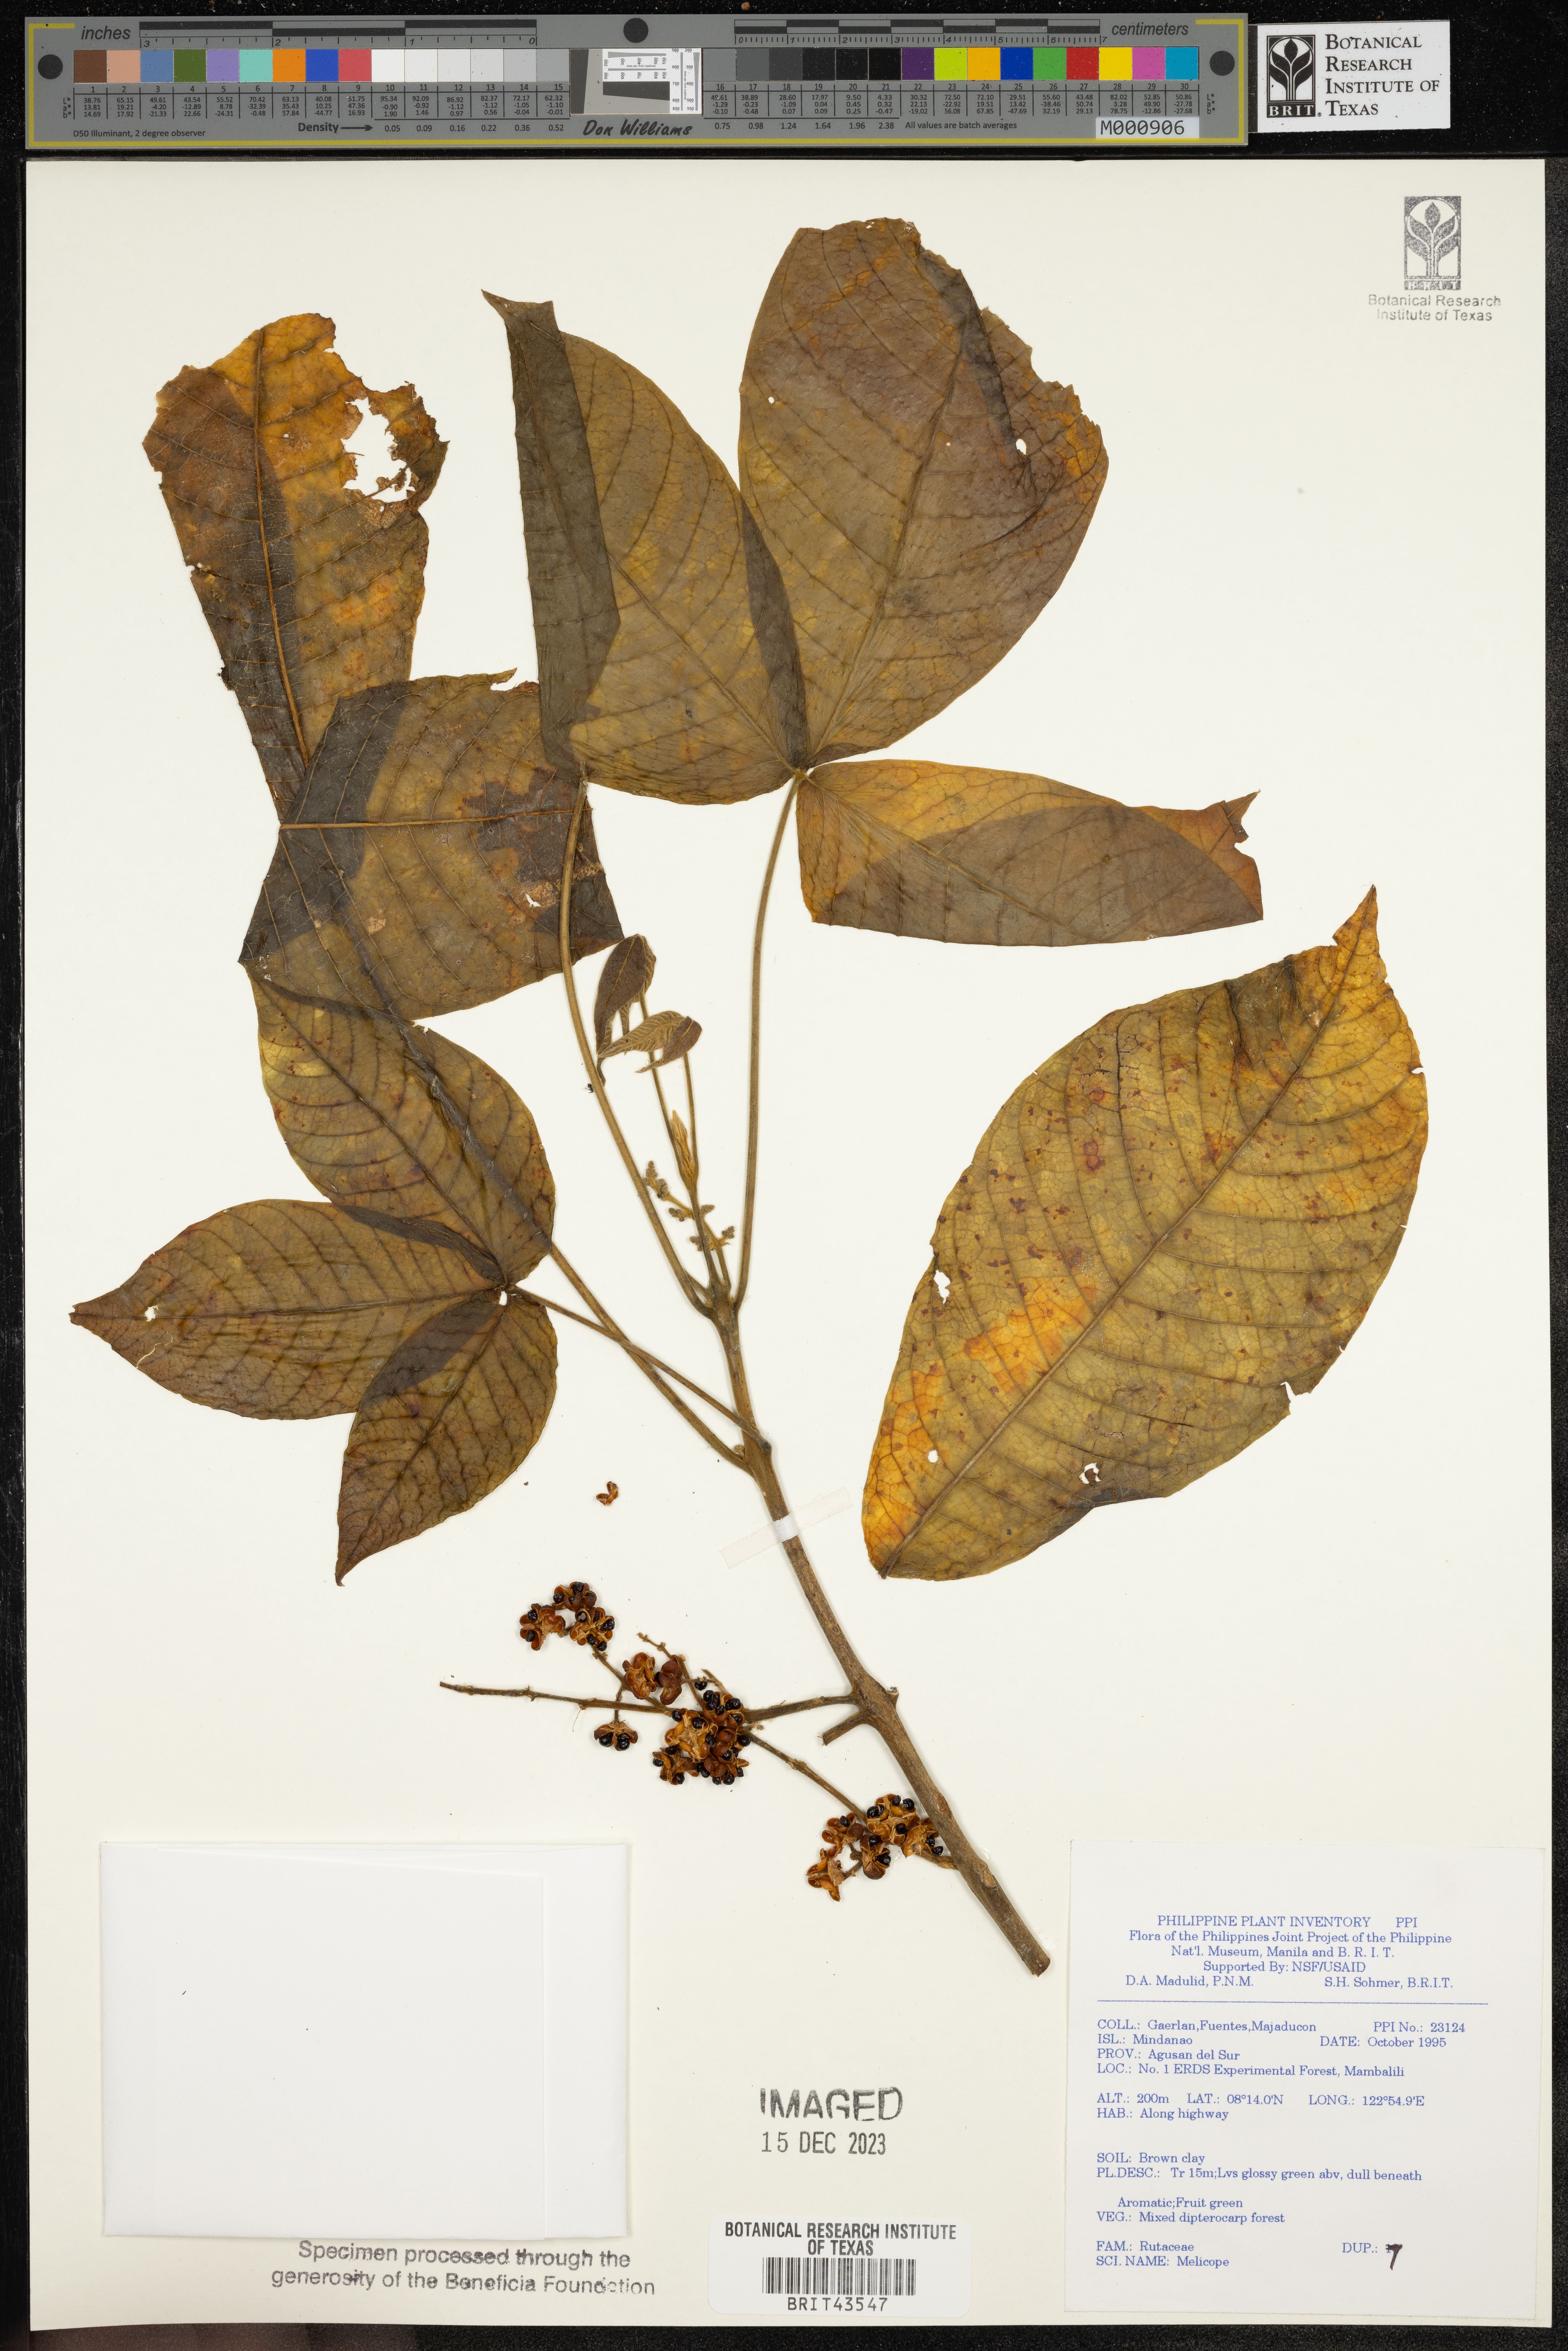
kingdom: Plantae
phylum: Tracheophyta
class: Magnoliopsida
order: Sapindales
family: Rutaceae
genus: Melicope
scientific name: Melicope
